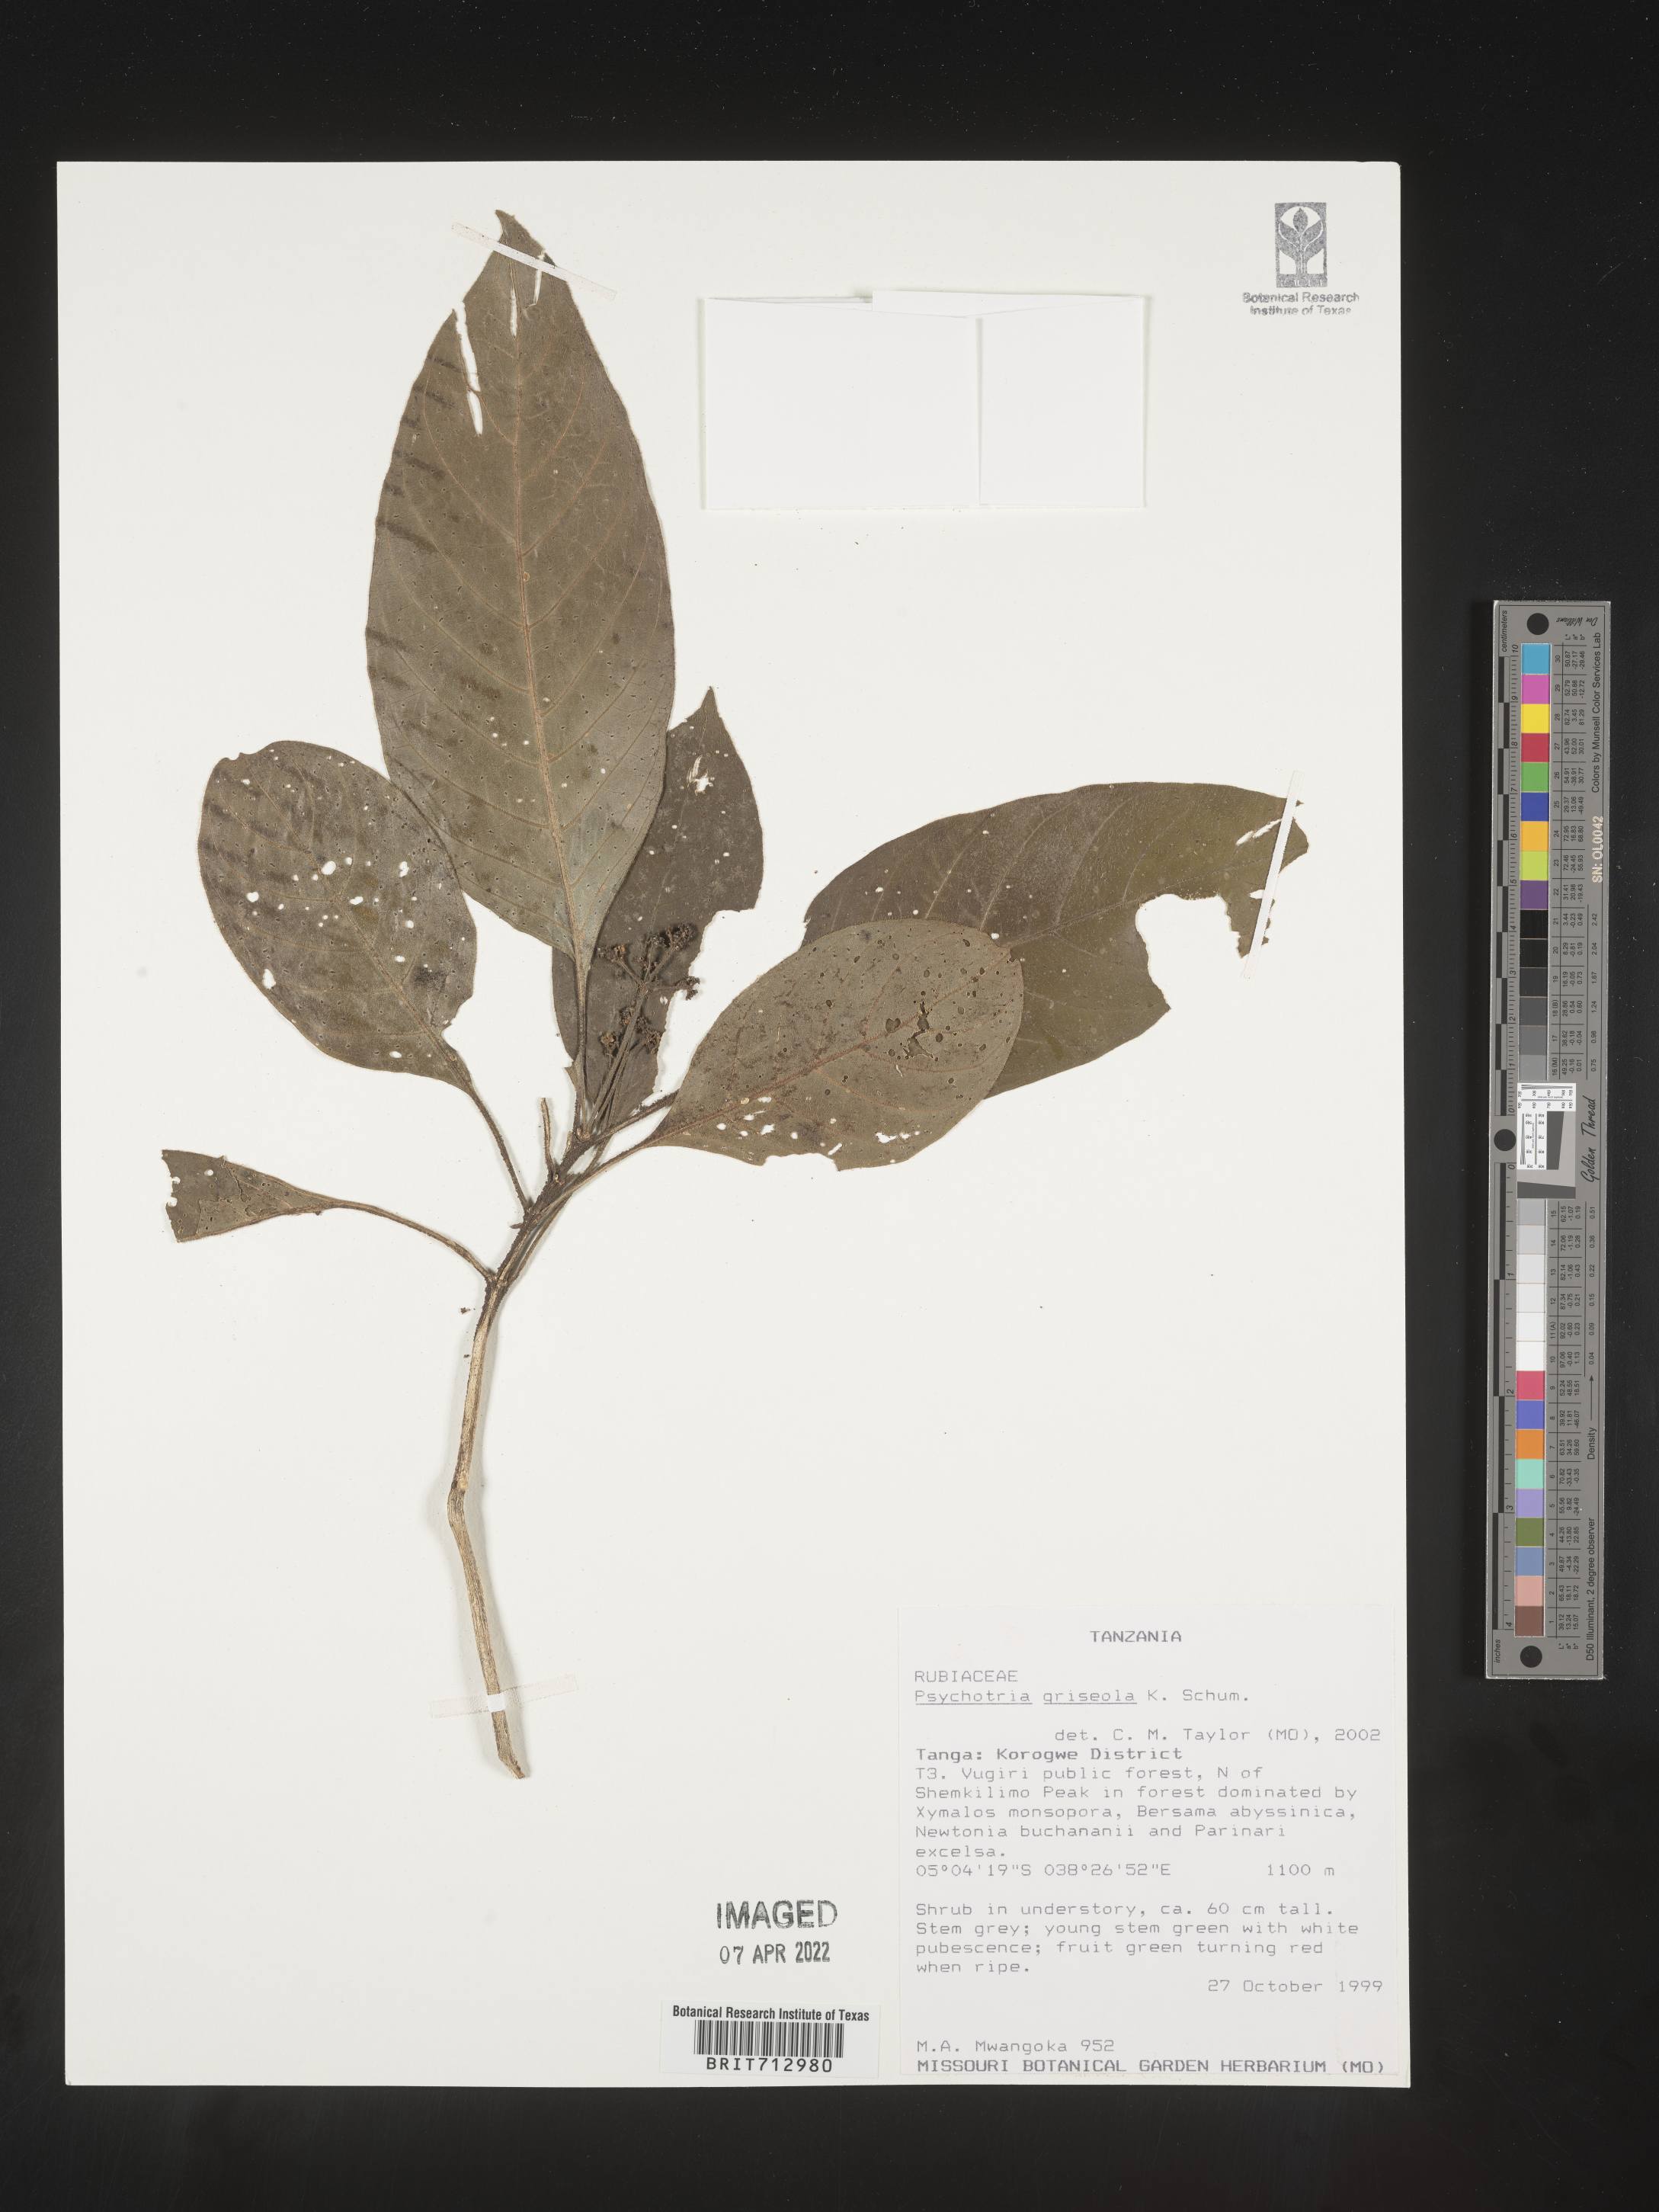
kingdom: Plantae
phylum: Tracheophyta
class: Magnoliopsida
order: Gentianales
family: Rubiaceae
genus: Psychotria
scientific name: Psychotria
